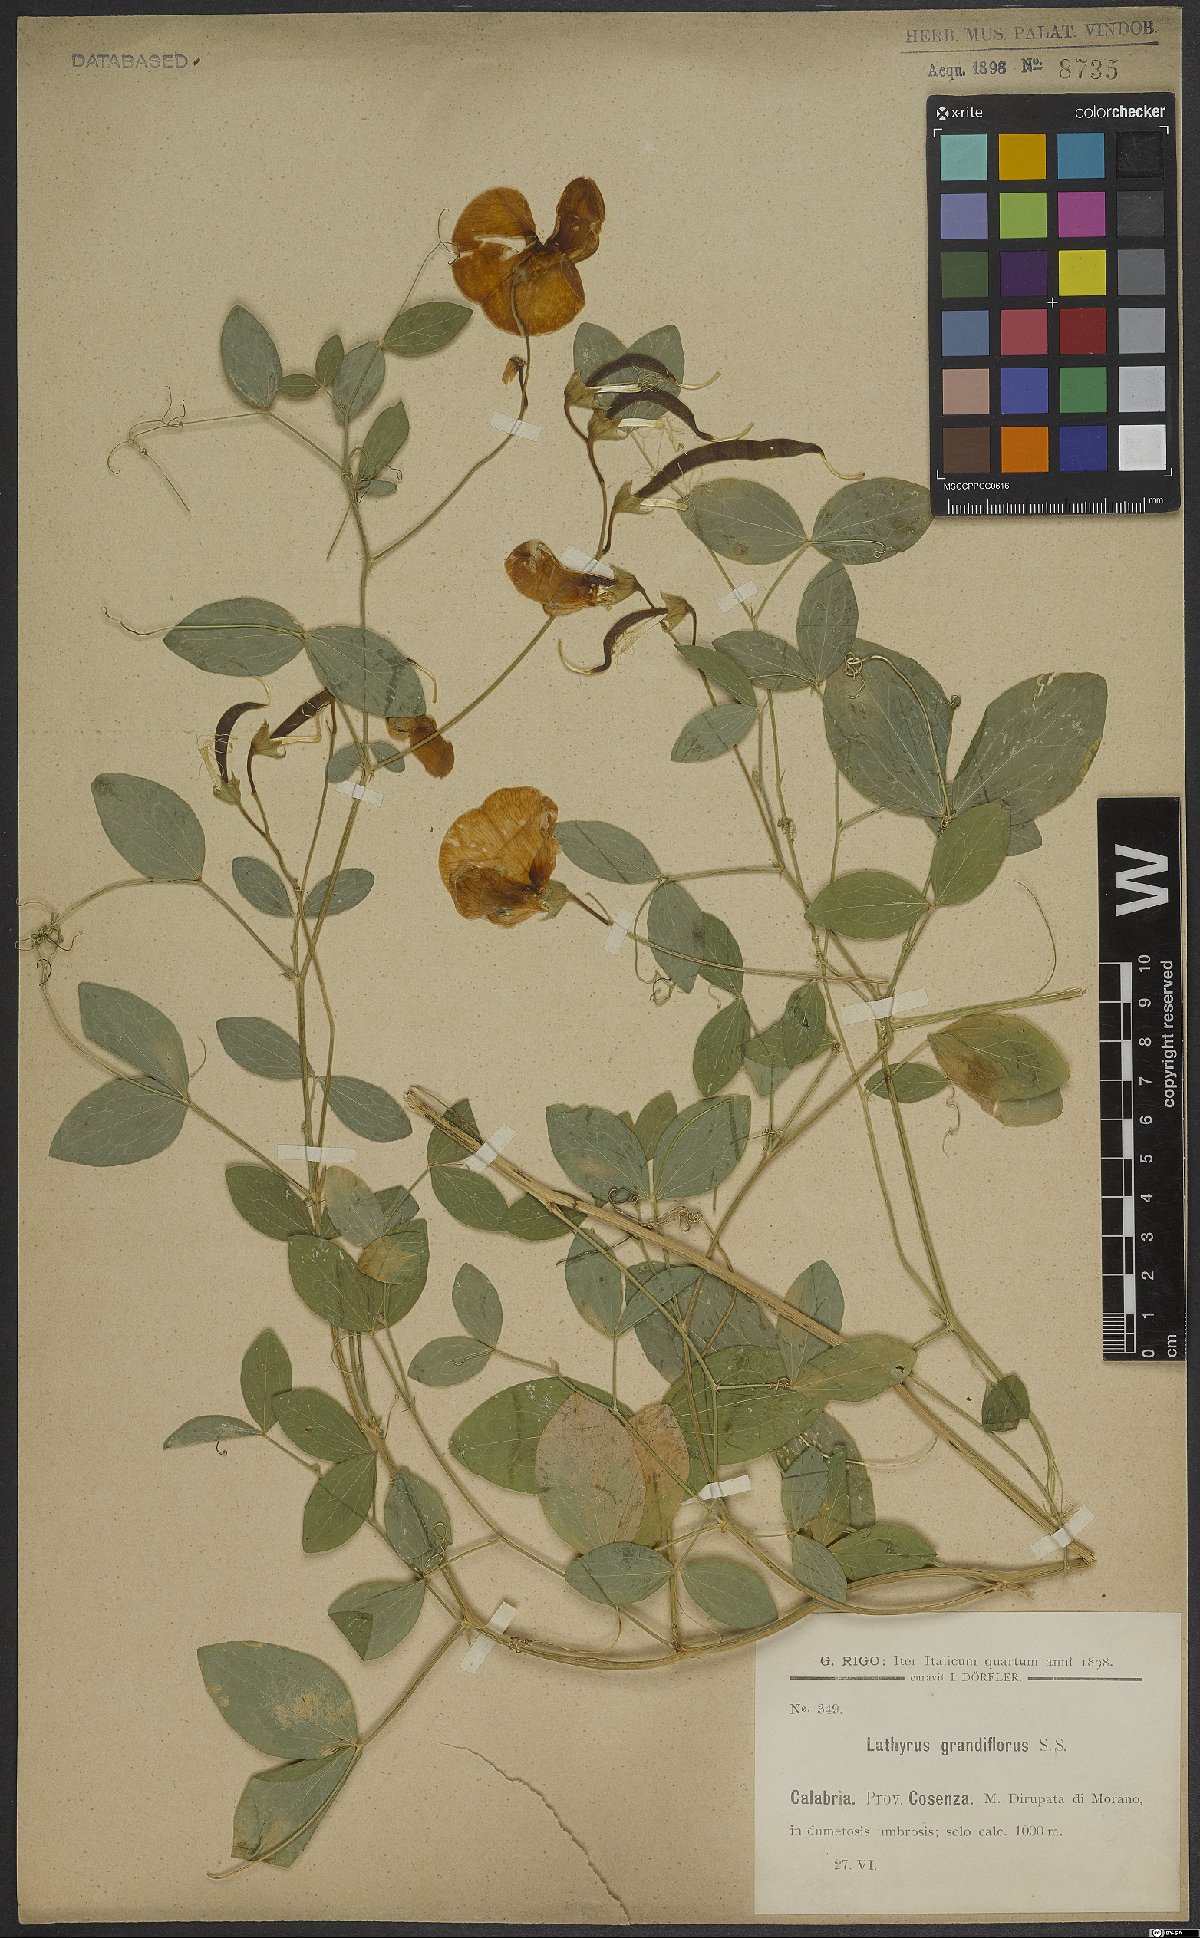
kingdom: Plantae
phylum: Tracheophyta
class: Magnoliopsida
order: Fabales
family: Fabaceae
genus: Lathyrus
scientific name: Lathyrus grandiflorus
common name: Two-flowered everlasting-pea
